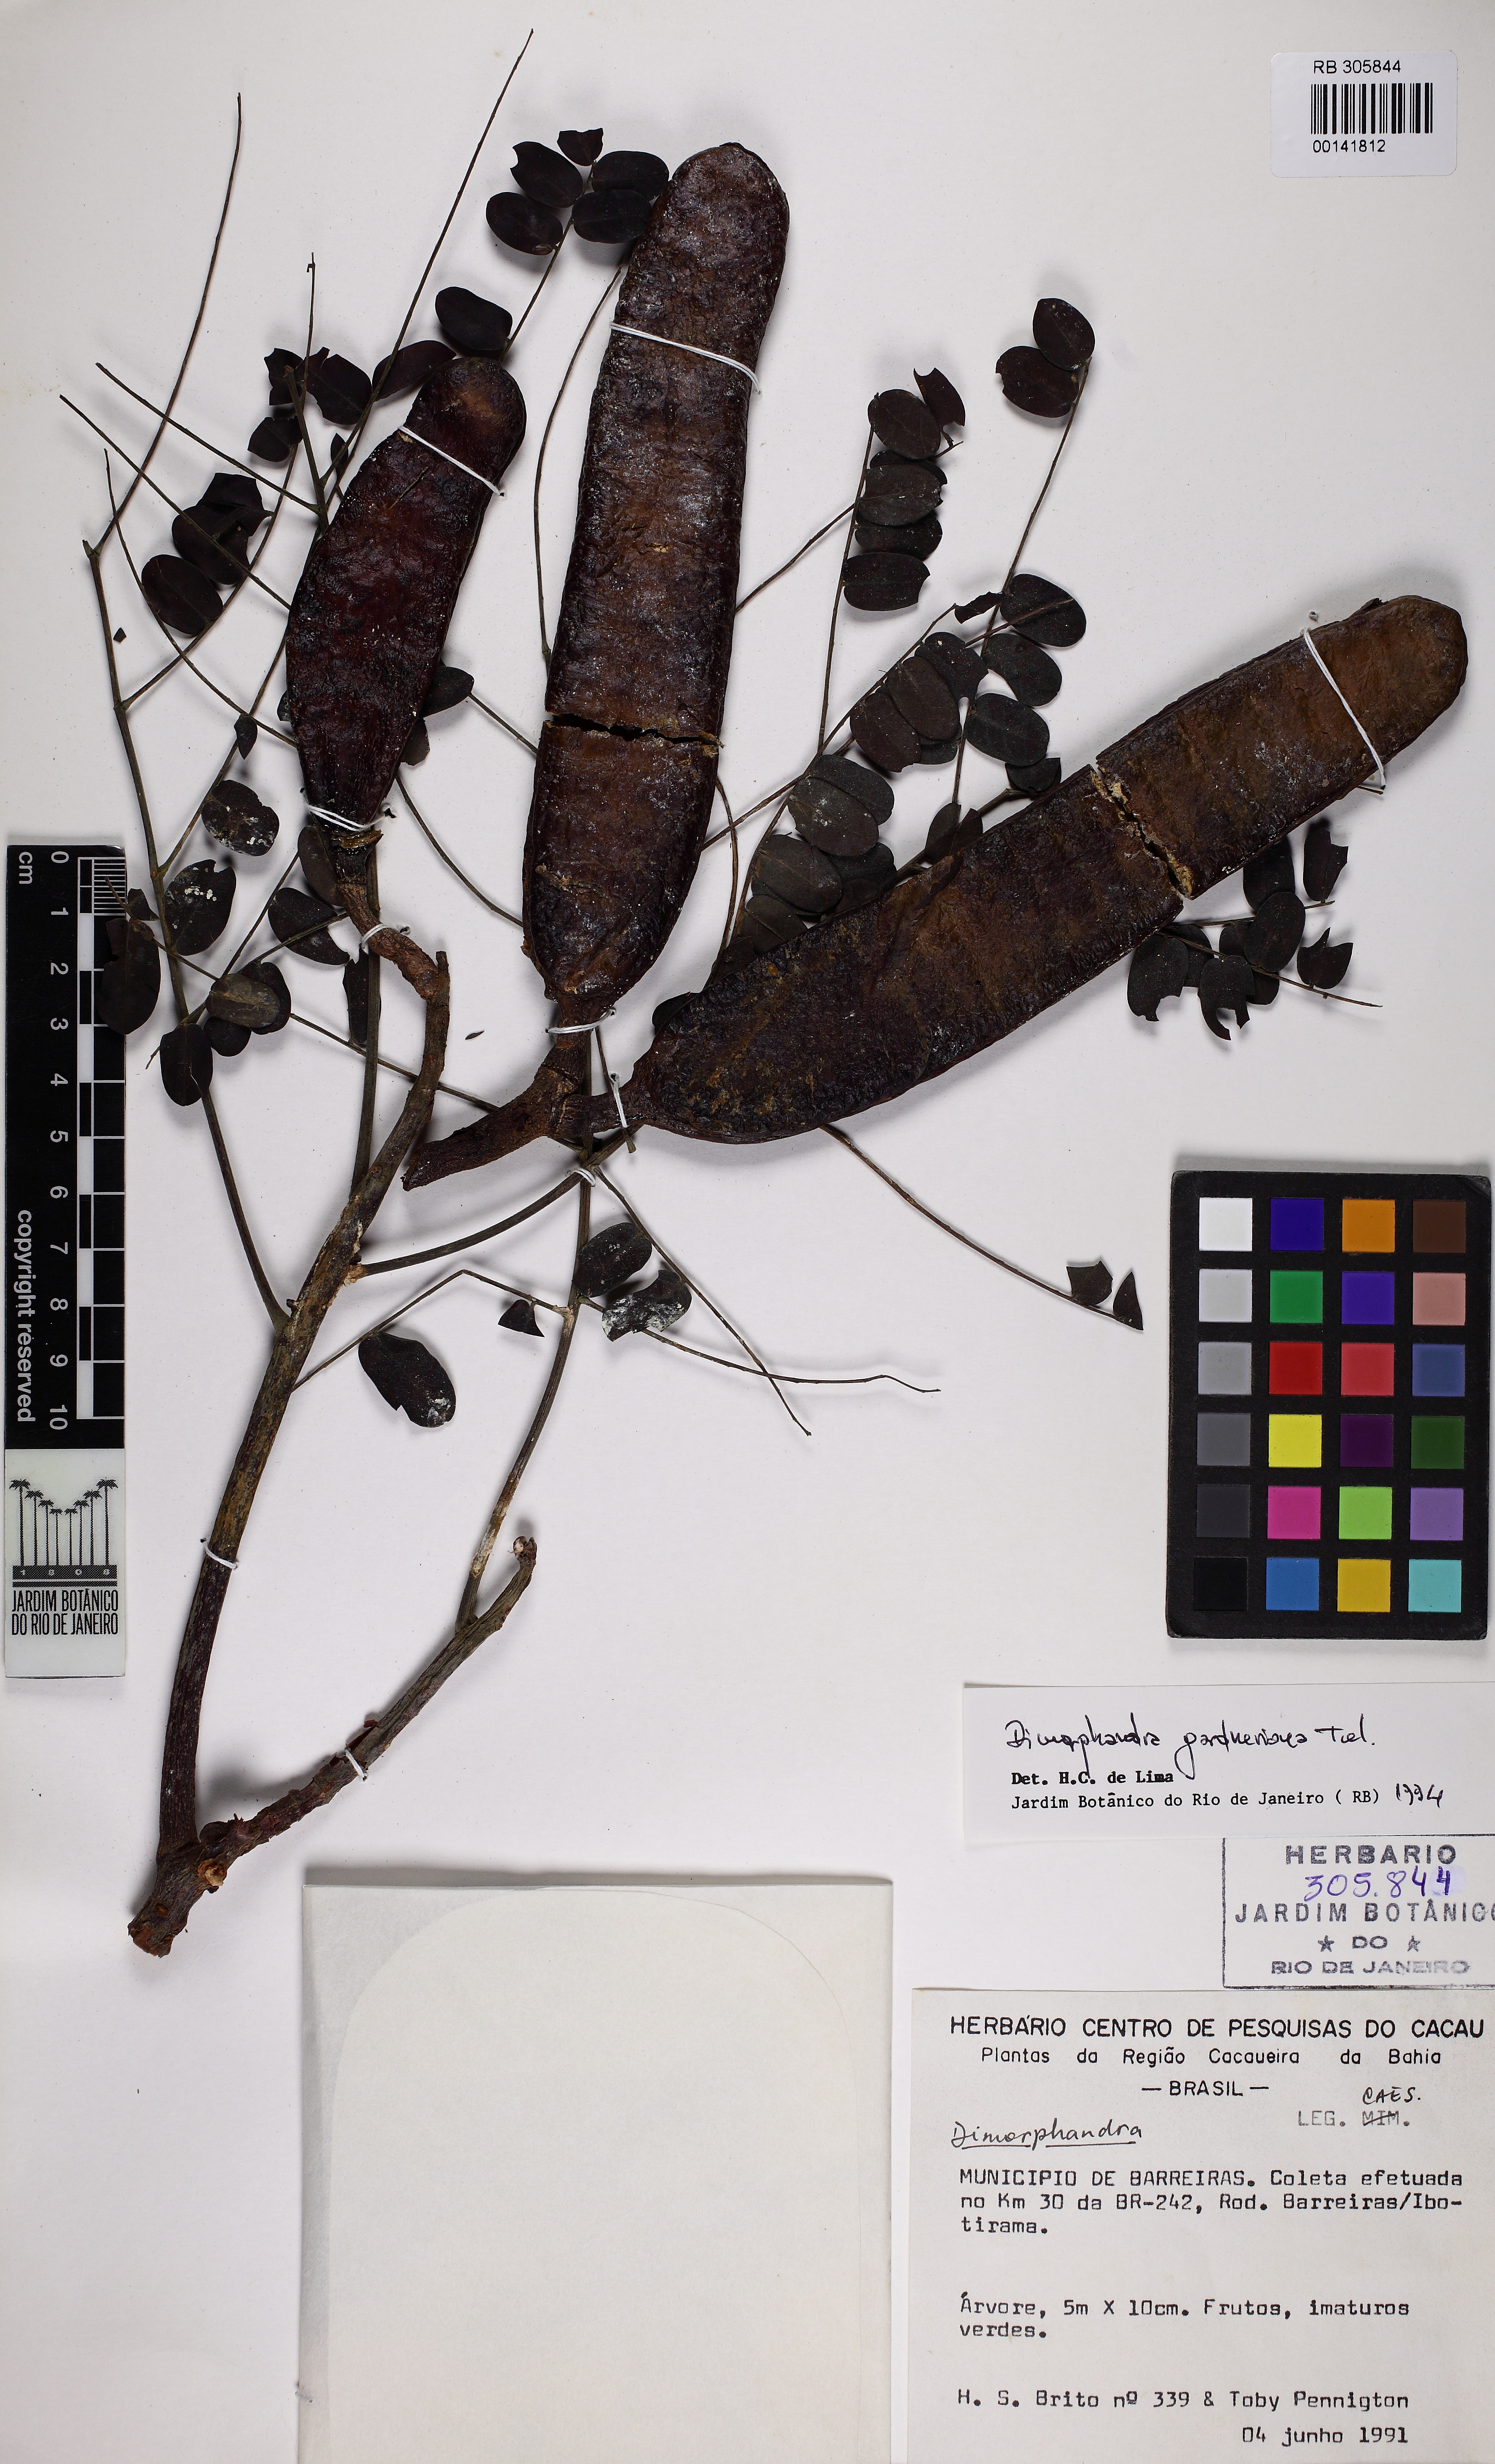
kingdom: Plantae
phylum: Tracheophyta
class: Magnoliopsida
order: Fabales
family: Fabaceae
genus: Dimorphandra
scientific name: Dimorphandra gardneriana
